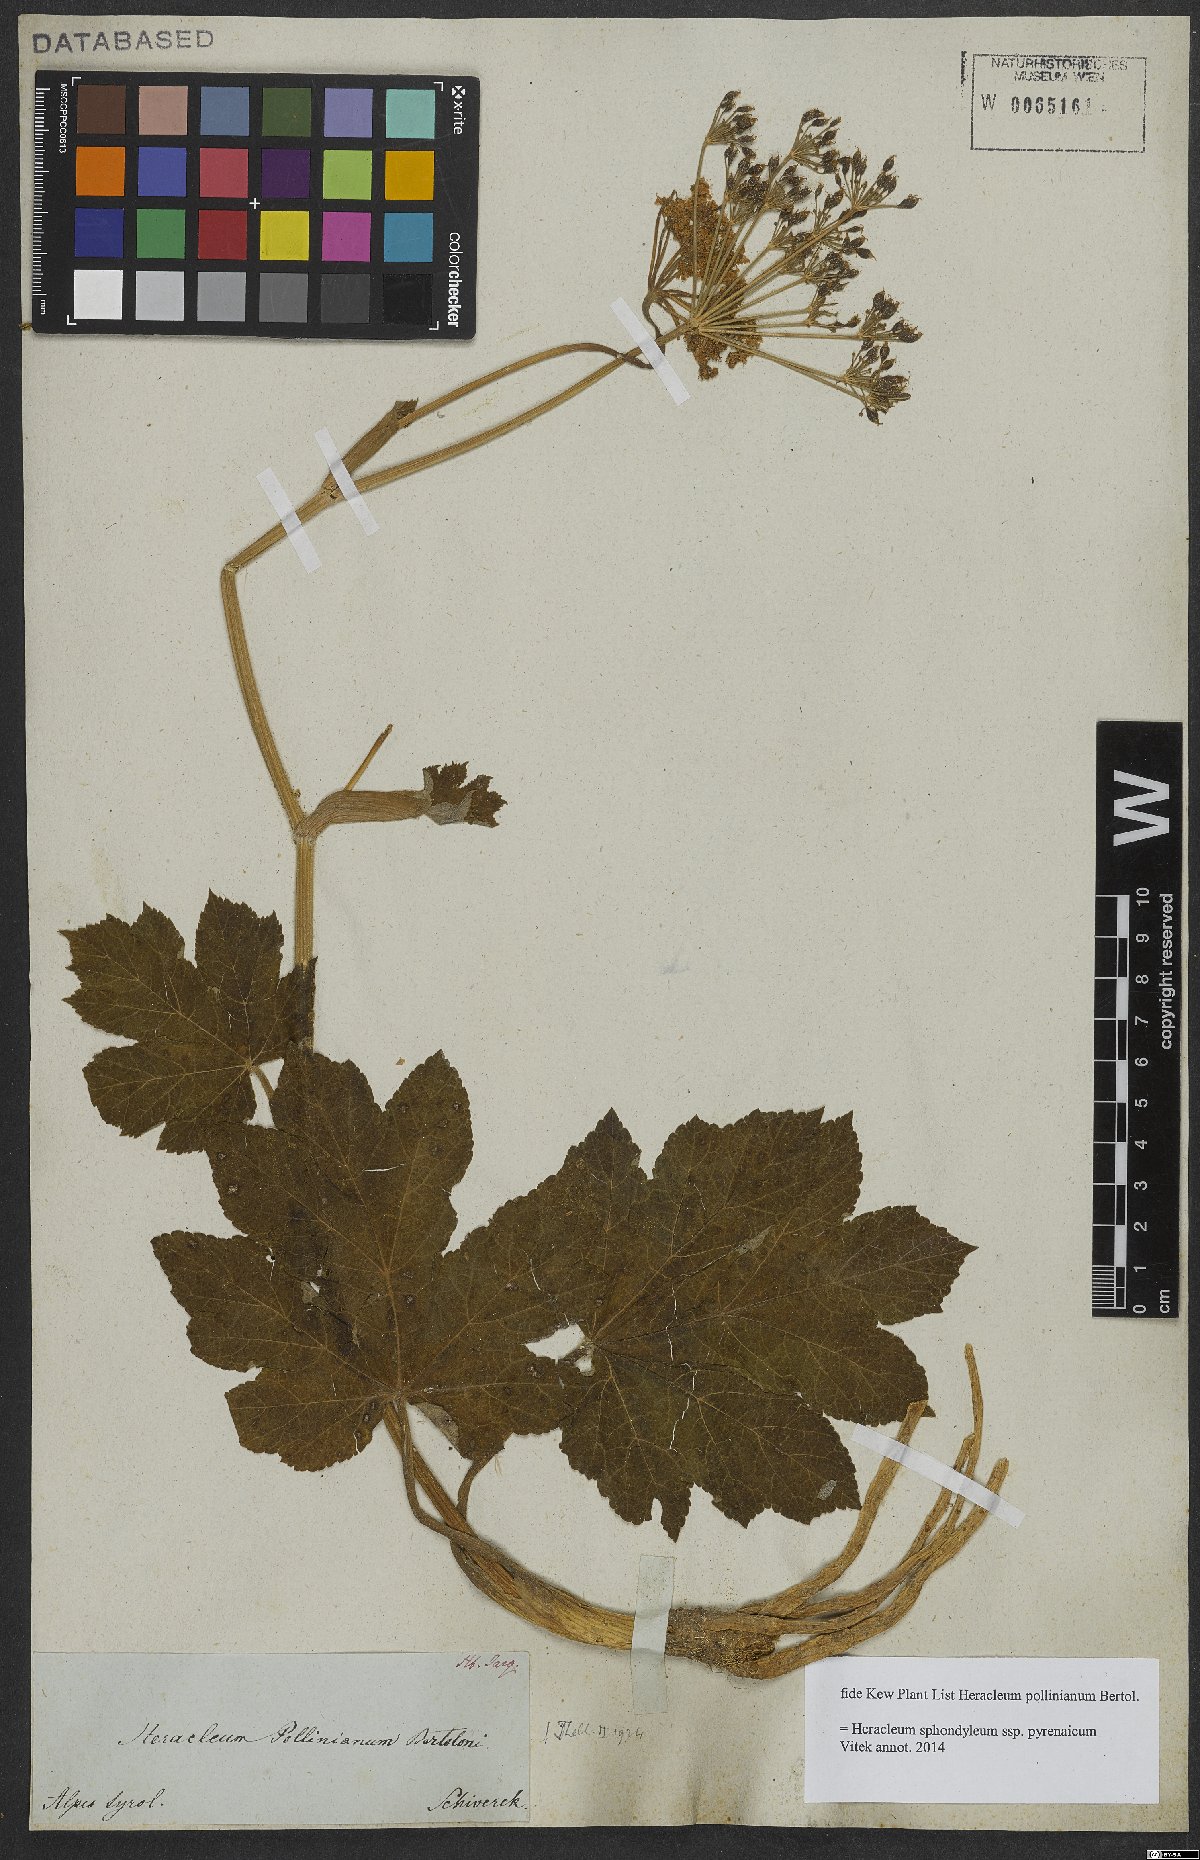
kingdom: Plantae
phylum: Tracheophyta
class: Magnoliopsida
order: Apiales
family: Apiaceae
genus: Heracleum
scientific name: Heracleum sphondylium
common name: Hogweed
